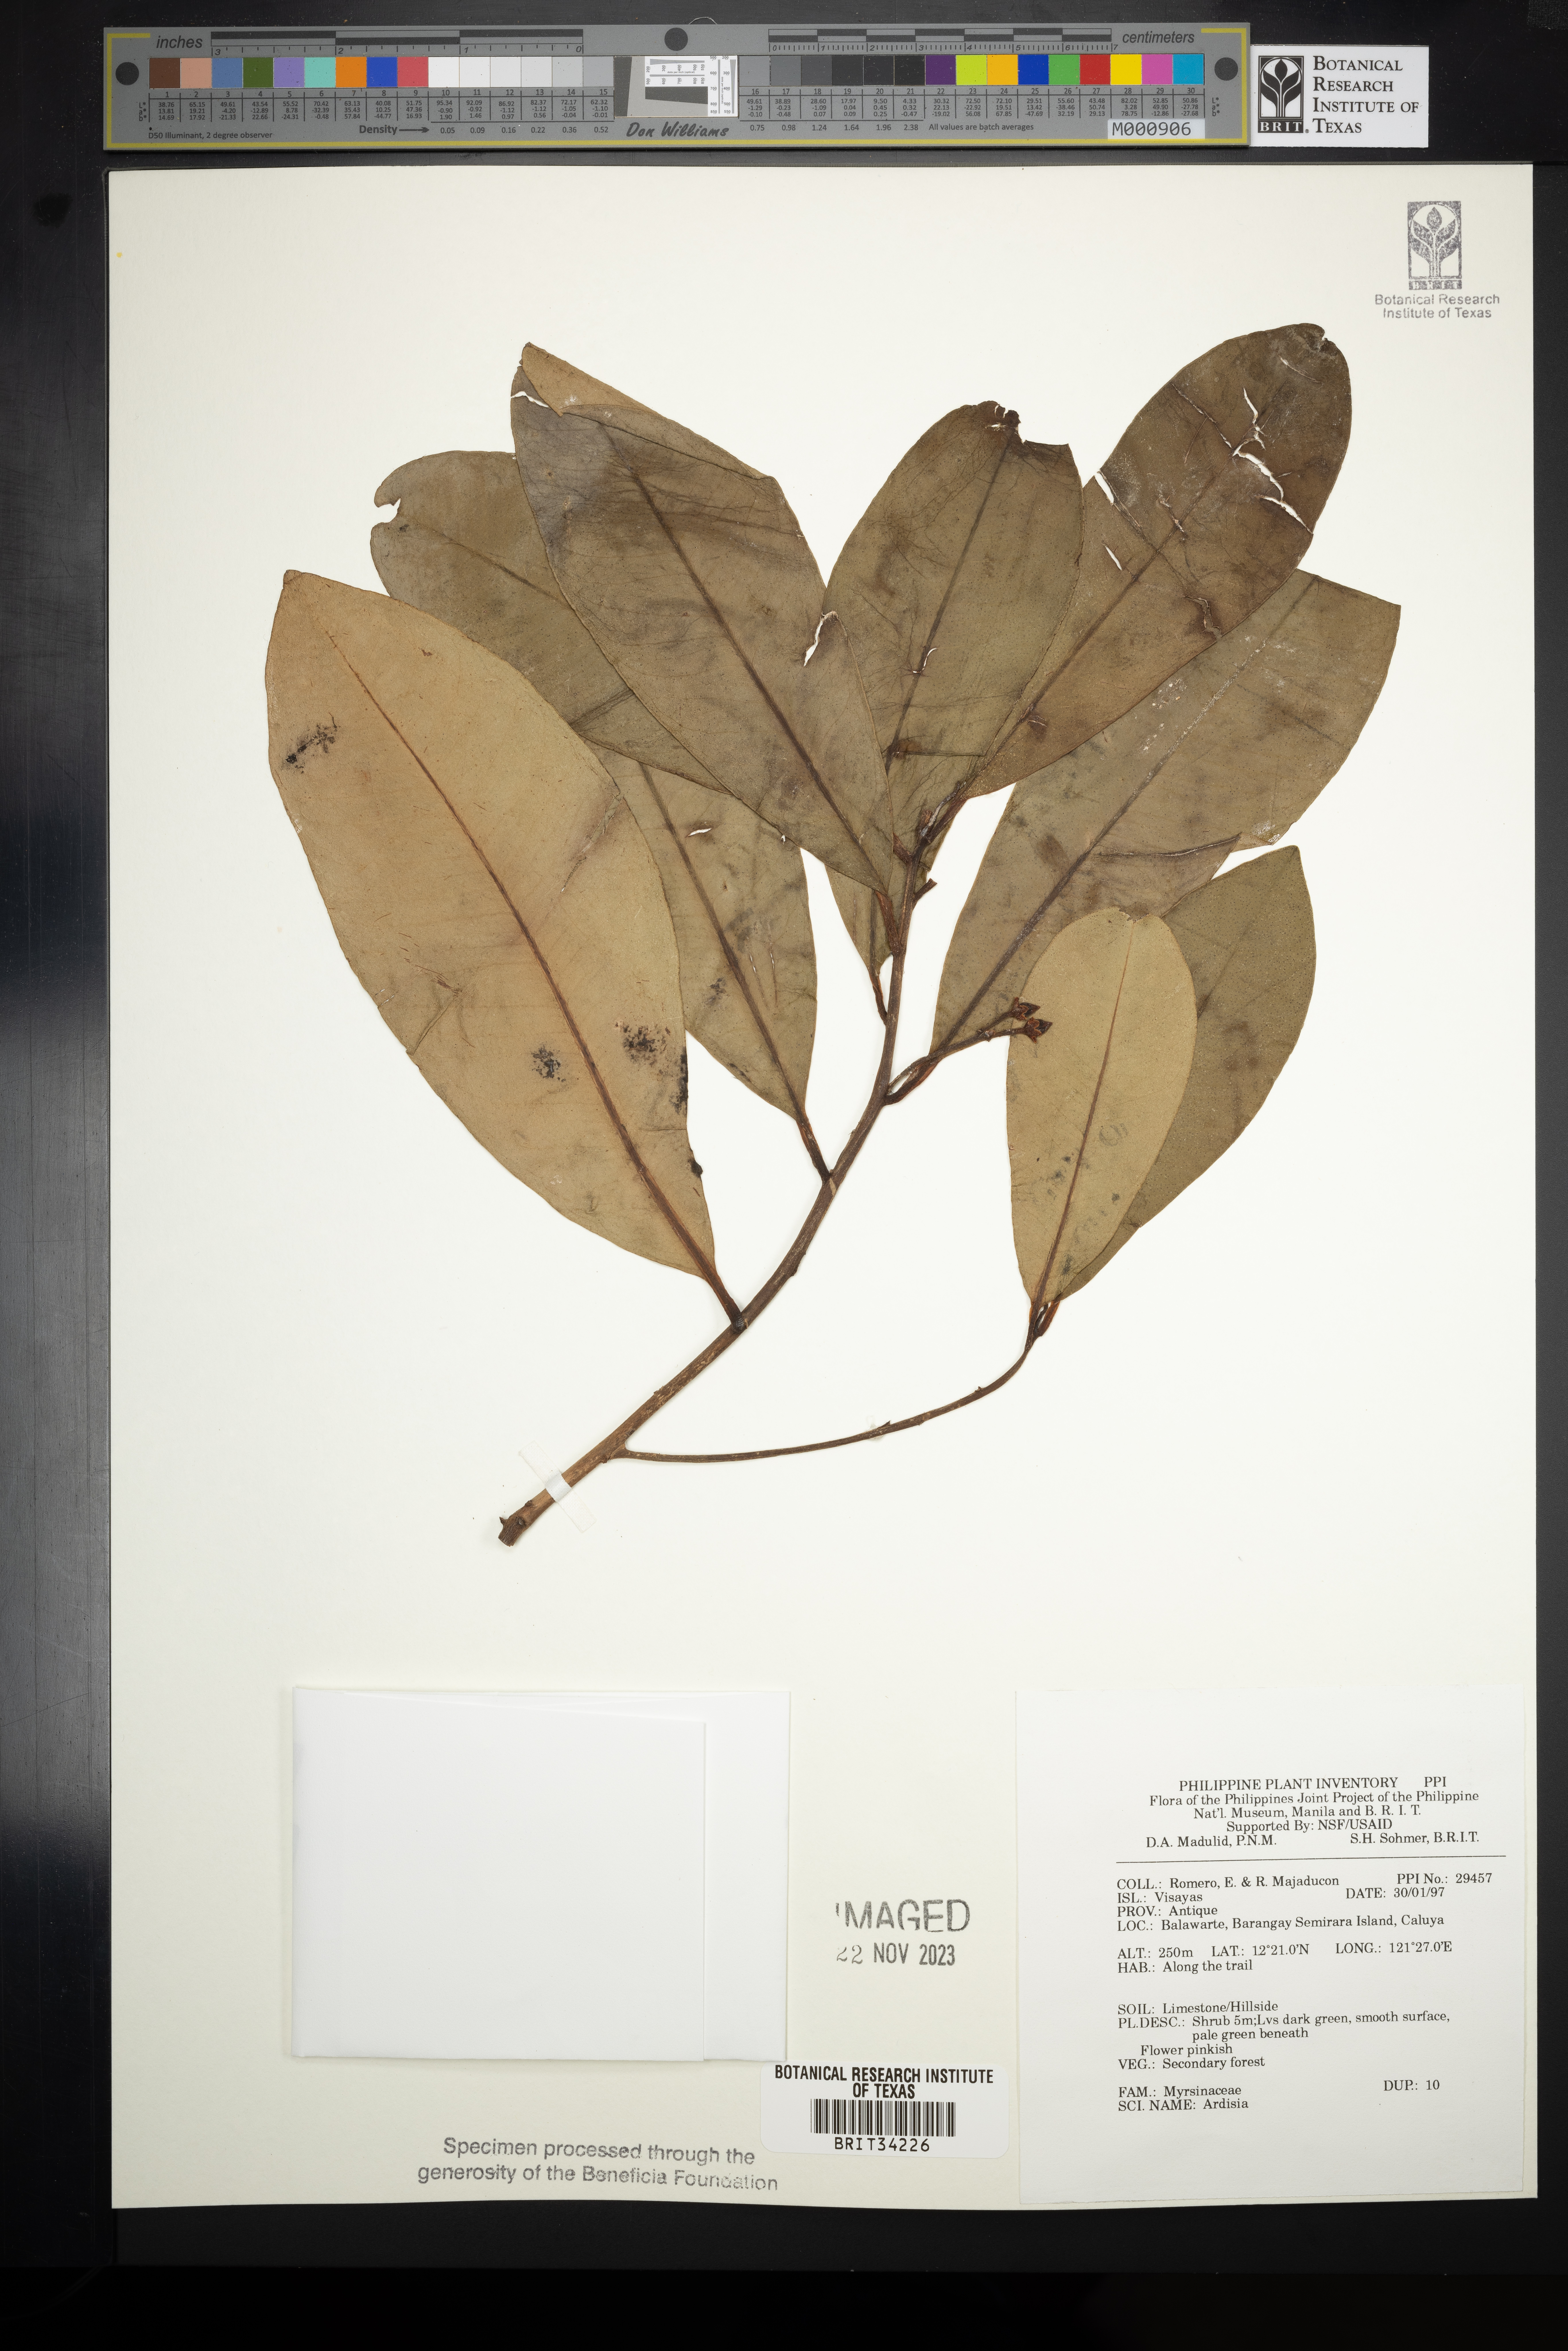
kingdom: Plantae
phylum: Tracheophyta
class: Magnoliopsida
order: Ericales
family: Primulaceae
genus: Ardisia
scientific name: Ardisia
